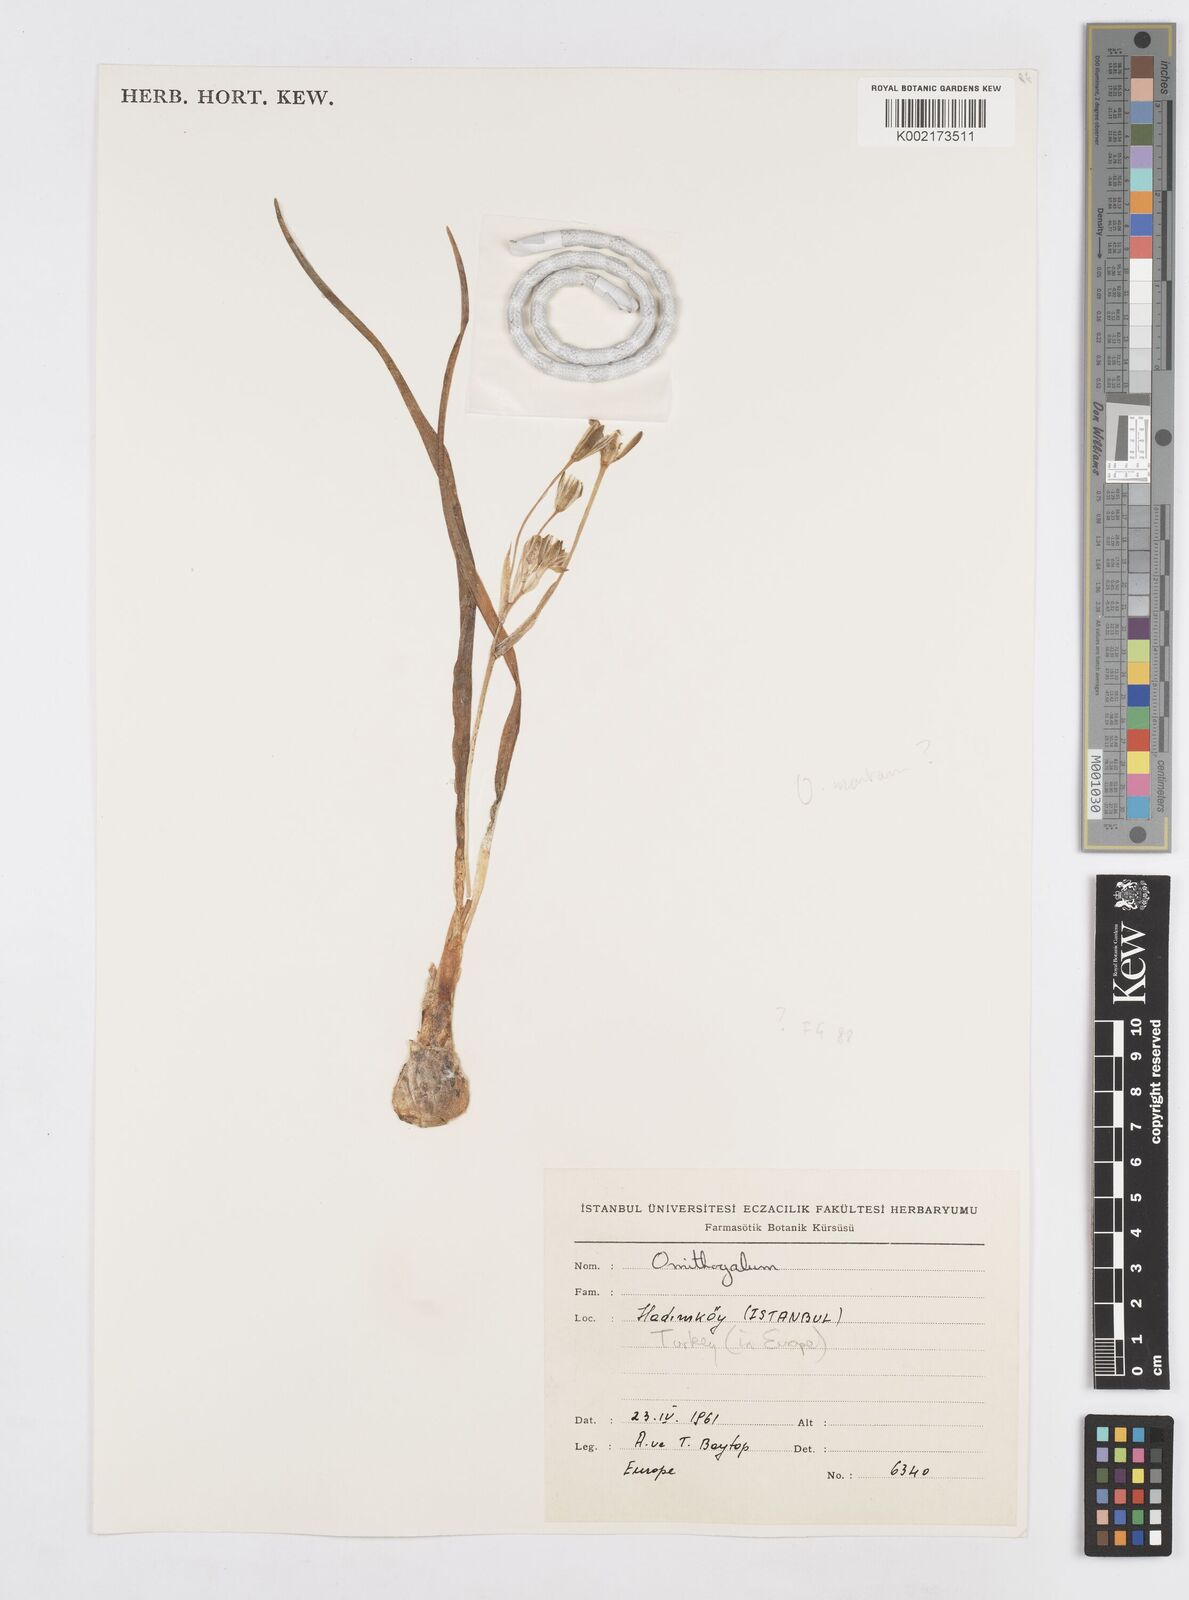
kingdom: Plantae
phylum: Tracheophyta
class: Liliopsida
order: Asparagales
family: Asparagaceae
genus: Ornithogalum
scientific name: Ornithogalum montanum
